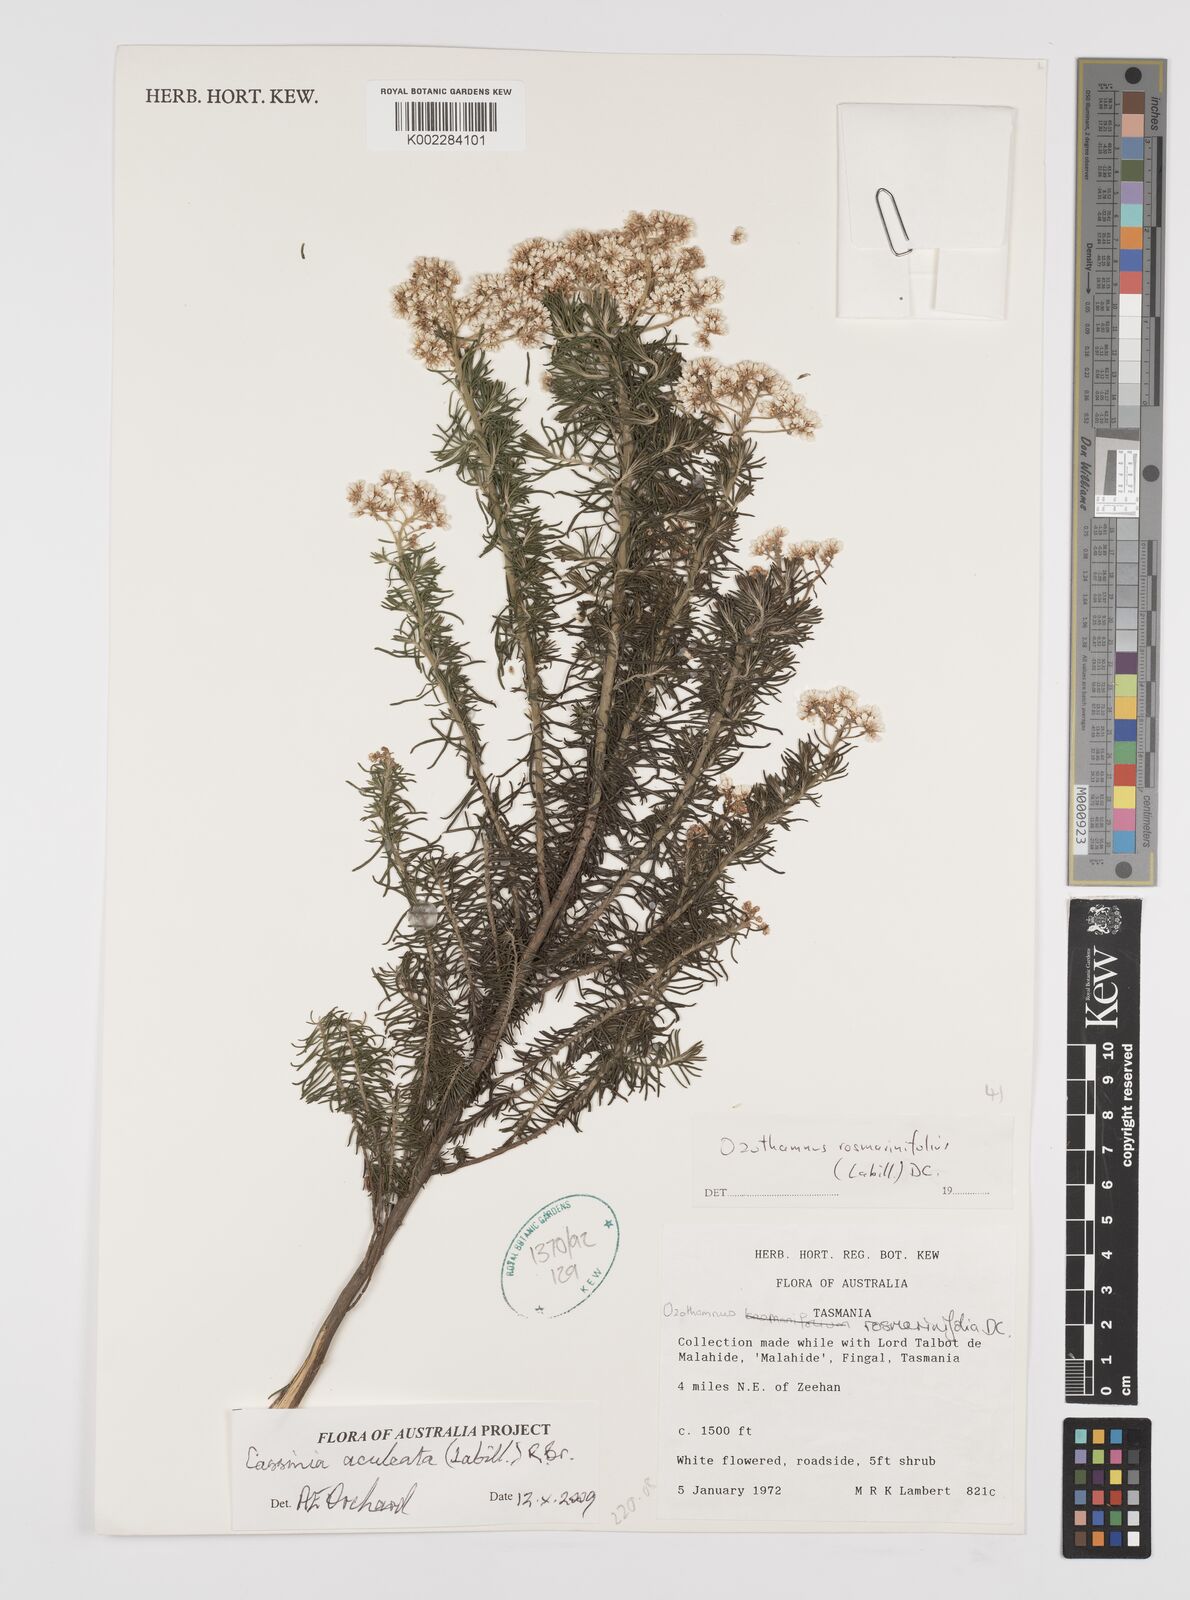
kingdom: Plantae
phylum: Tracheophyta
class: Magnoliopsida
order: Asterales
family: Asteraceae
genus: Cassinia
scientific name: Cassinia aculeata
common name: Australian tauhinu
